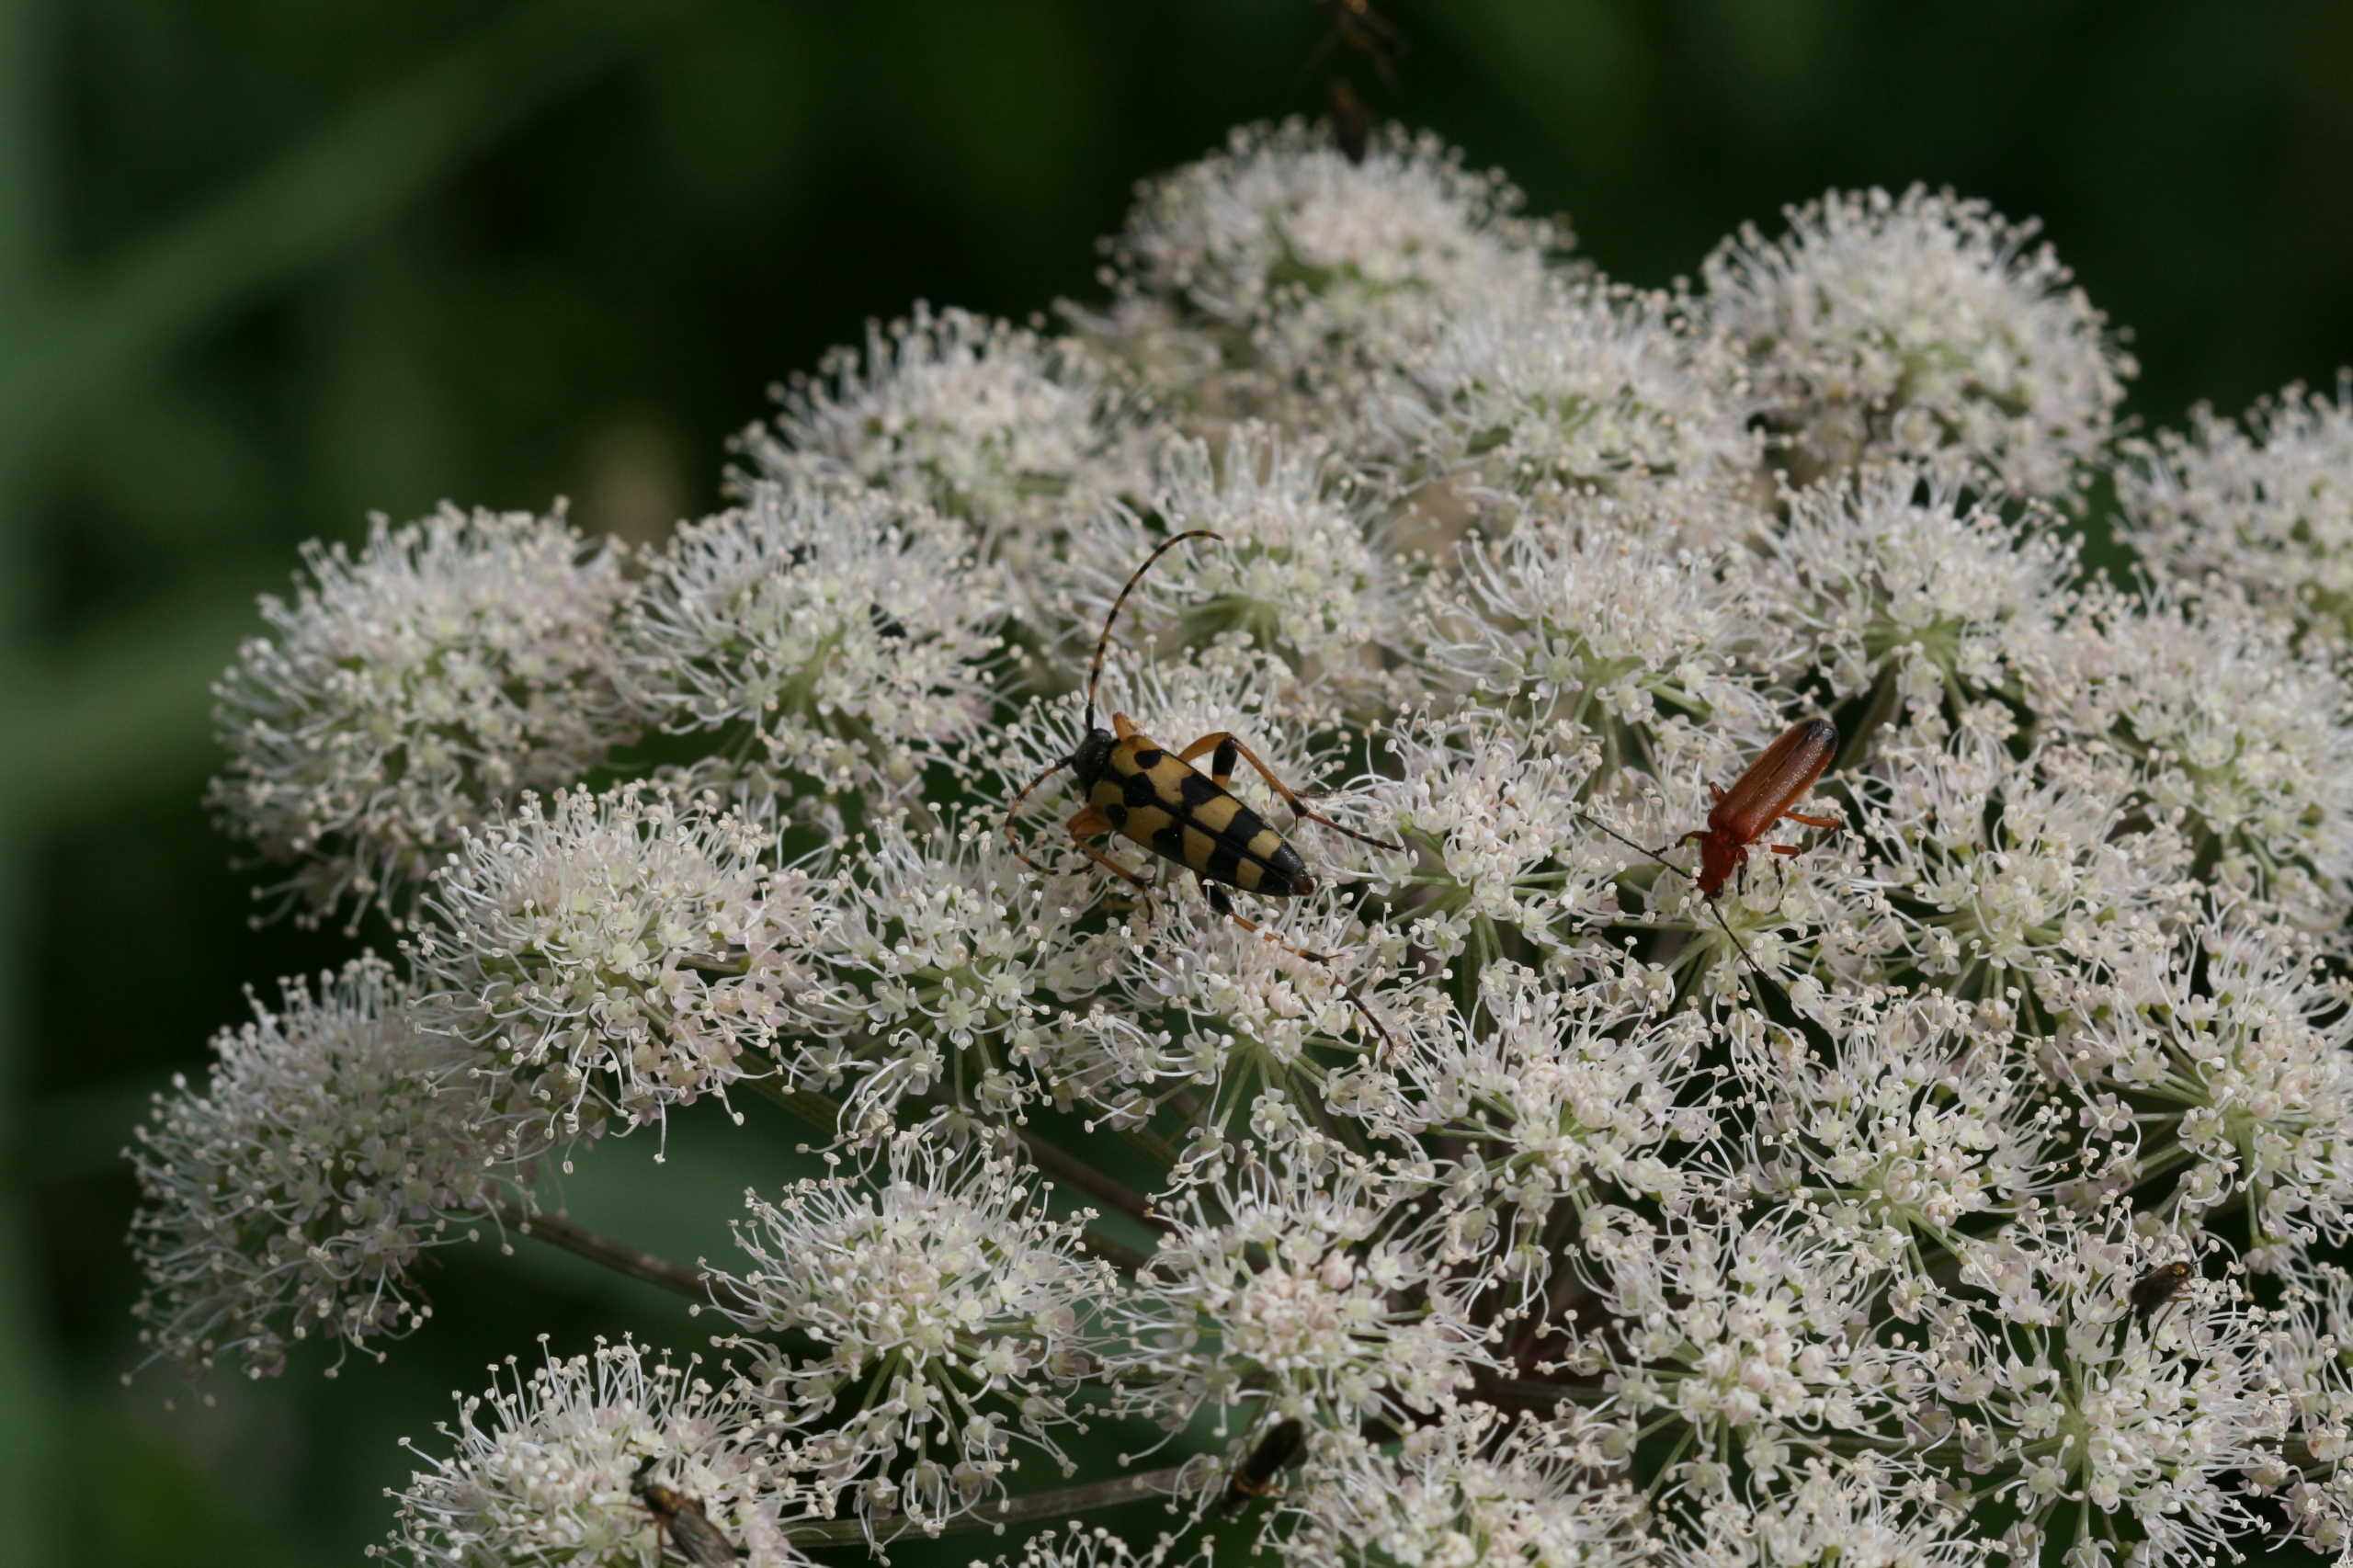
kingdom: Animalia
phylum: Arthropoda
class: Insecta
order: Coleoptera
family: Cerambycidae
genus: Rutpela
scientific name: Rutpela maculata
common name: Sydlig blomsterbuk
